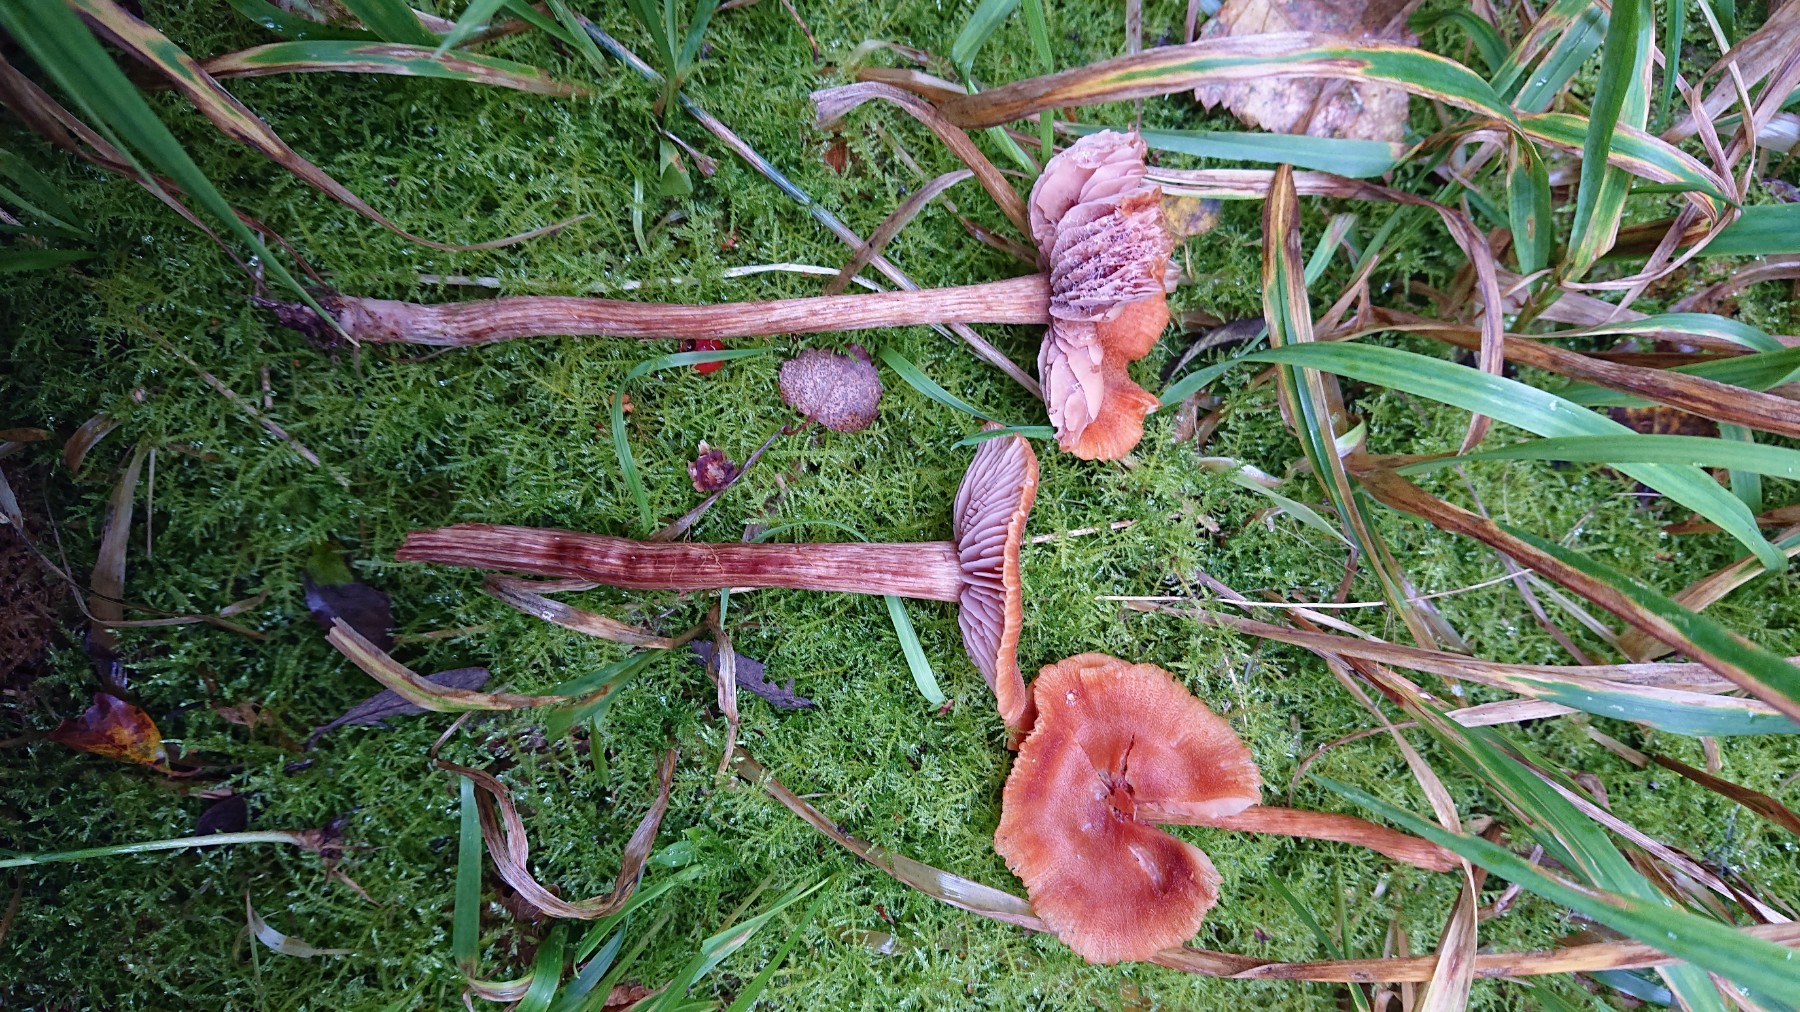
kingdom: Fungi
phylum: Basidiomycota
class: Agaricomycetes
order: Agaricales
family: Hydnangiaceae
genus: Laccaria
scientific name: Laccaria
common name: ametysthat
